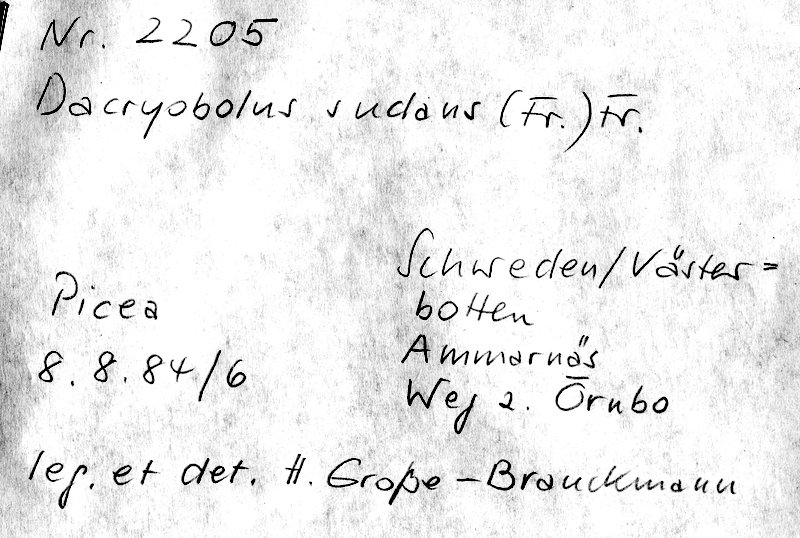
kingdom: Plantae
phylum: Tracheophyta
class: Pinopsida
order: Pinales
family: Pinaceae
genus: Picea
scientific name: Picea
